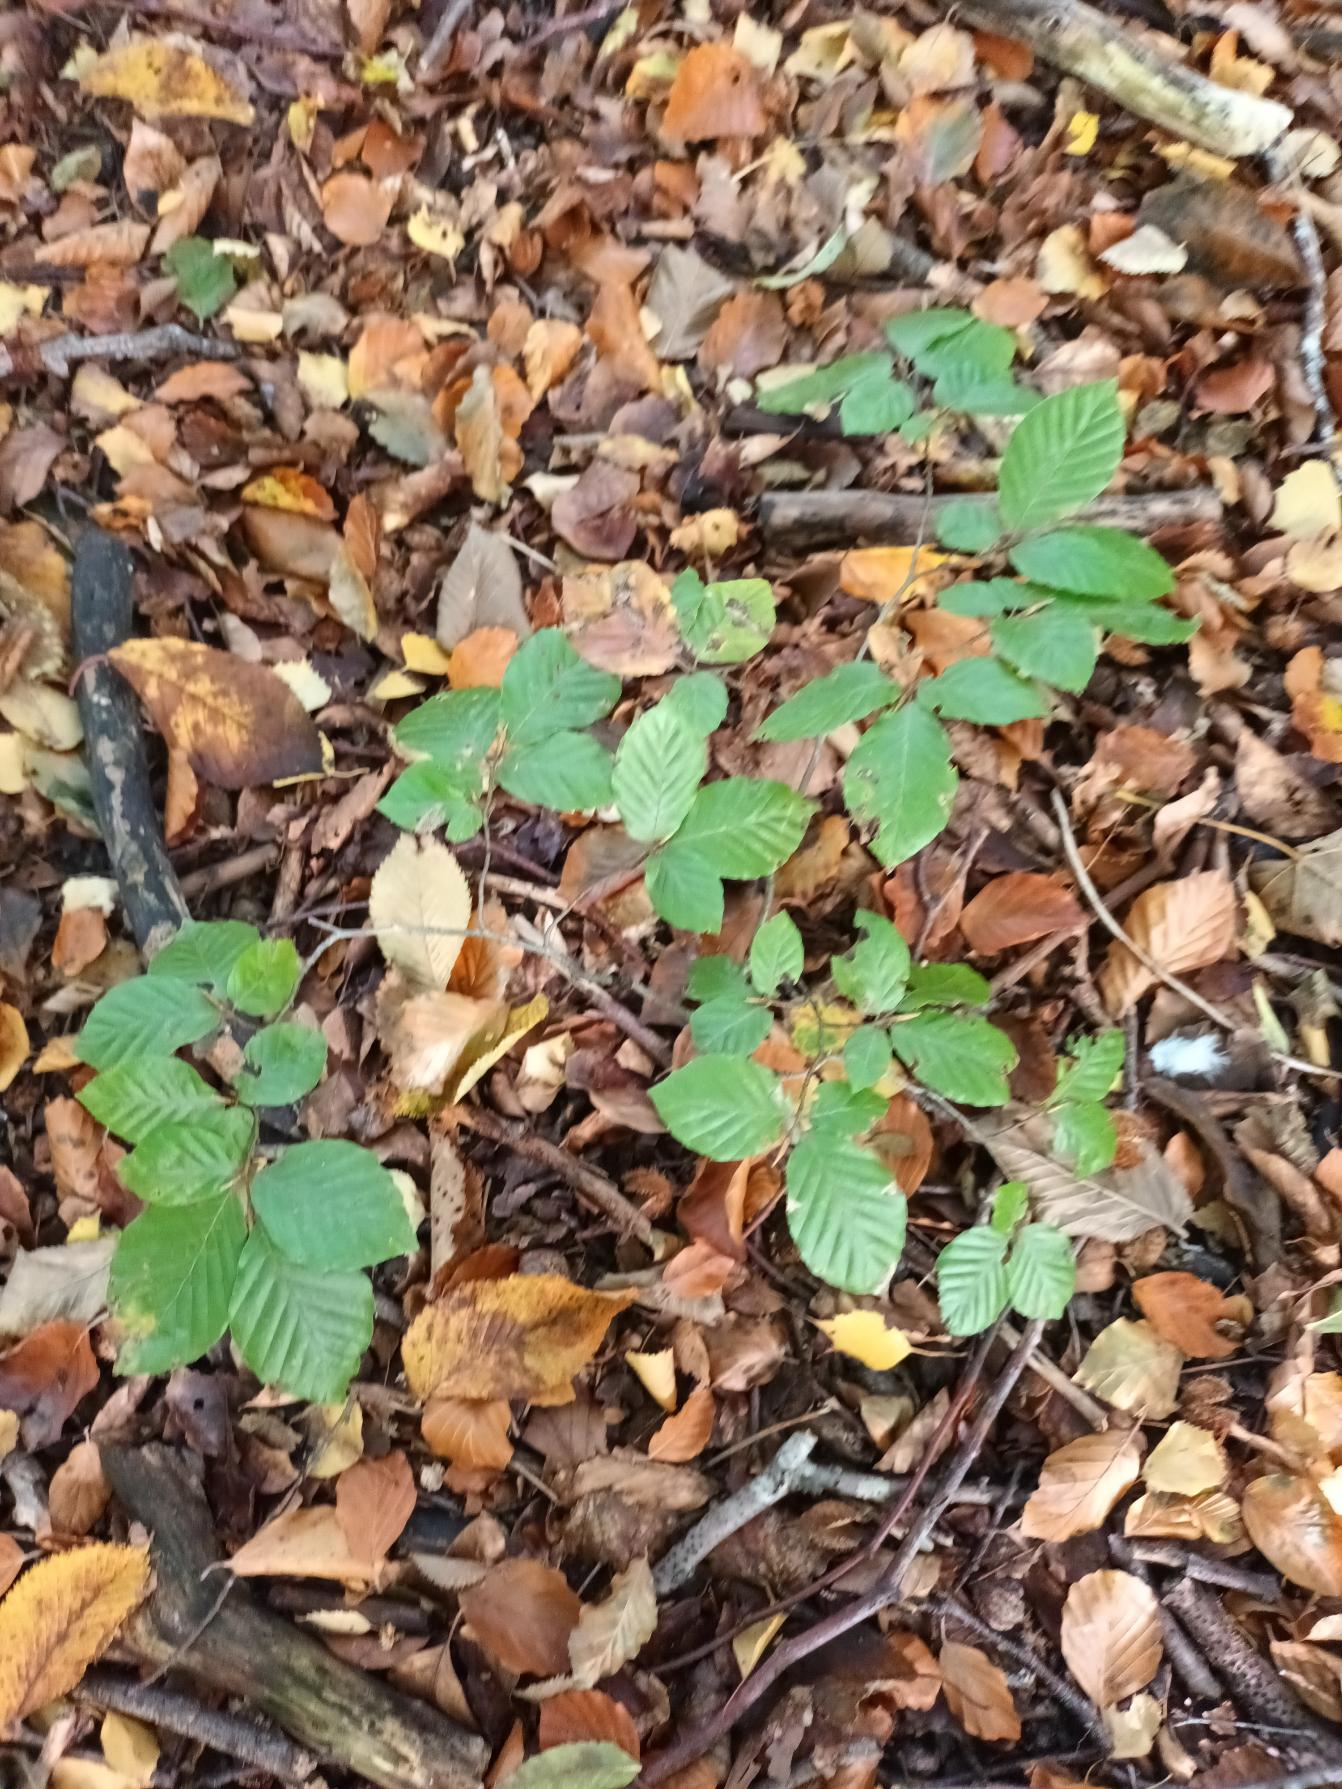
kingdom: Plantae
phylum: Tracheophyta
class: Magnoliopsida
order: Fagales
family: Fagaceae
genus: Fagus
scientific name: Fagus sylvatica
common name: Bøg
